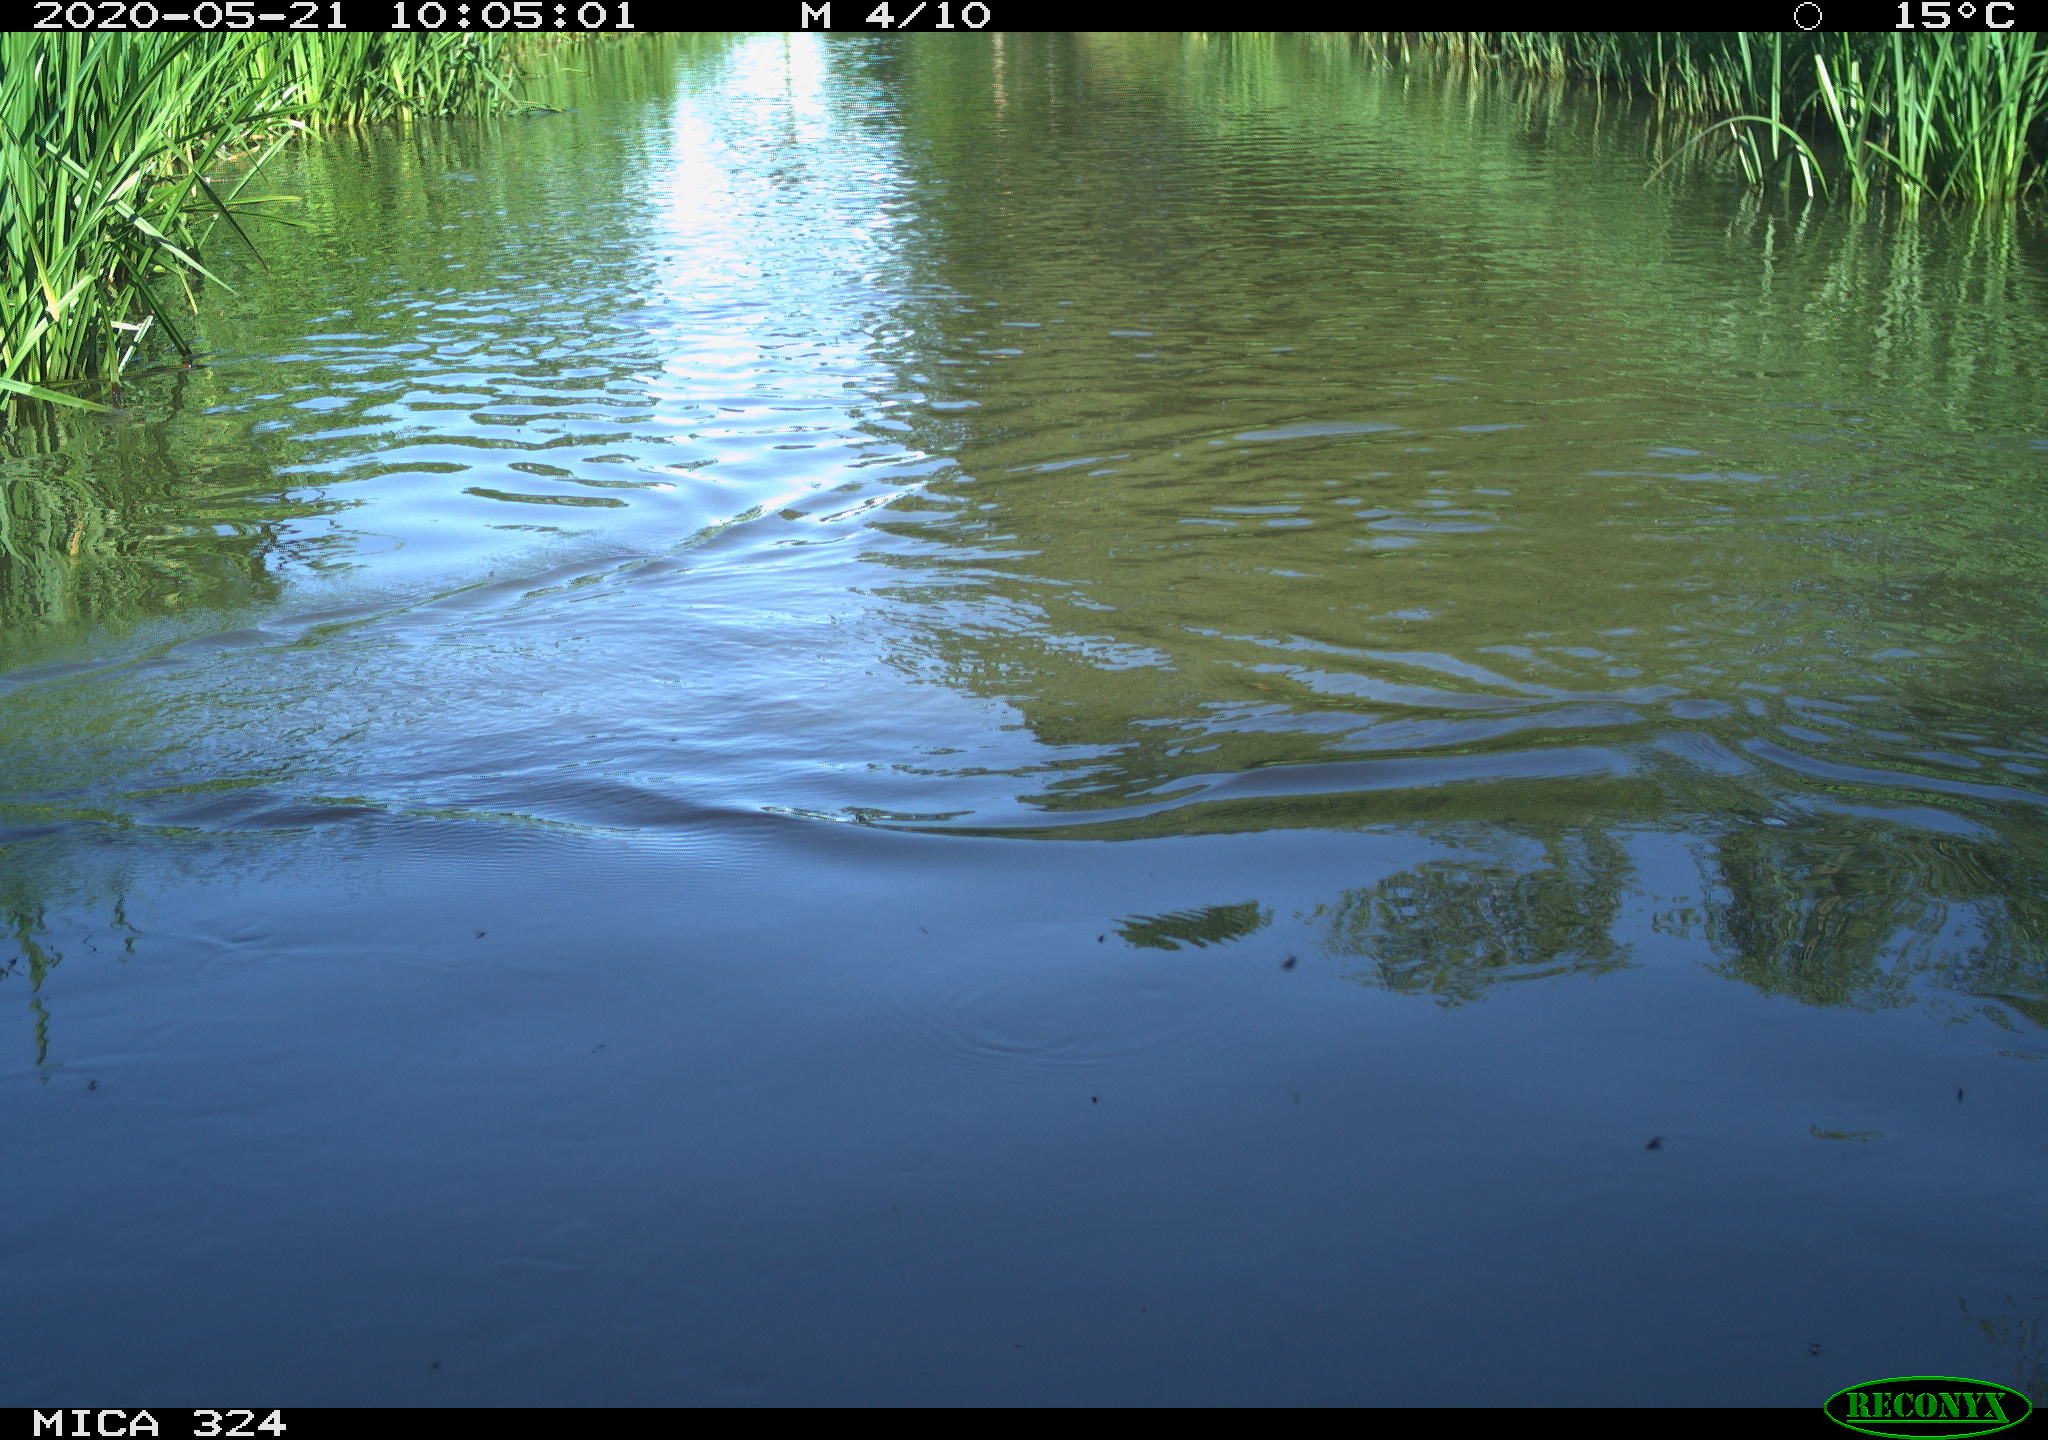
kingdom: Animalia
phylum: Chordata
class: Aves
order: Gruiformes
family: Rallidae
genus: Fulica
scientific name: Fulica atra
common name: Eurasian coot
